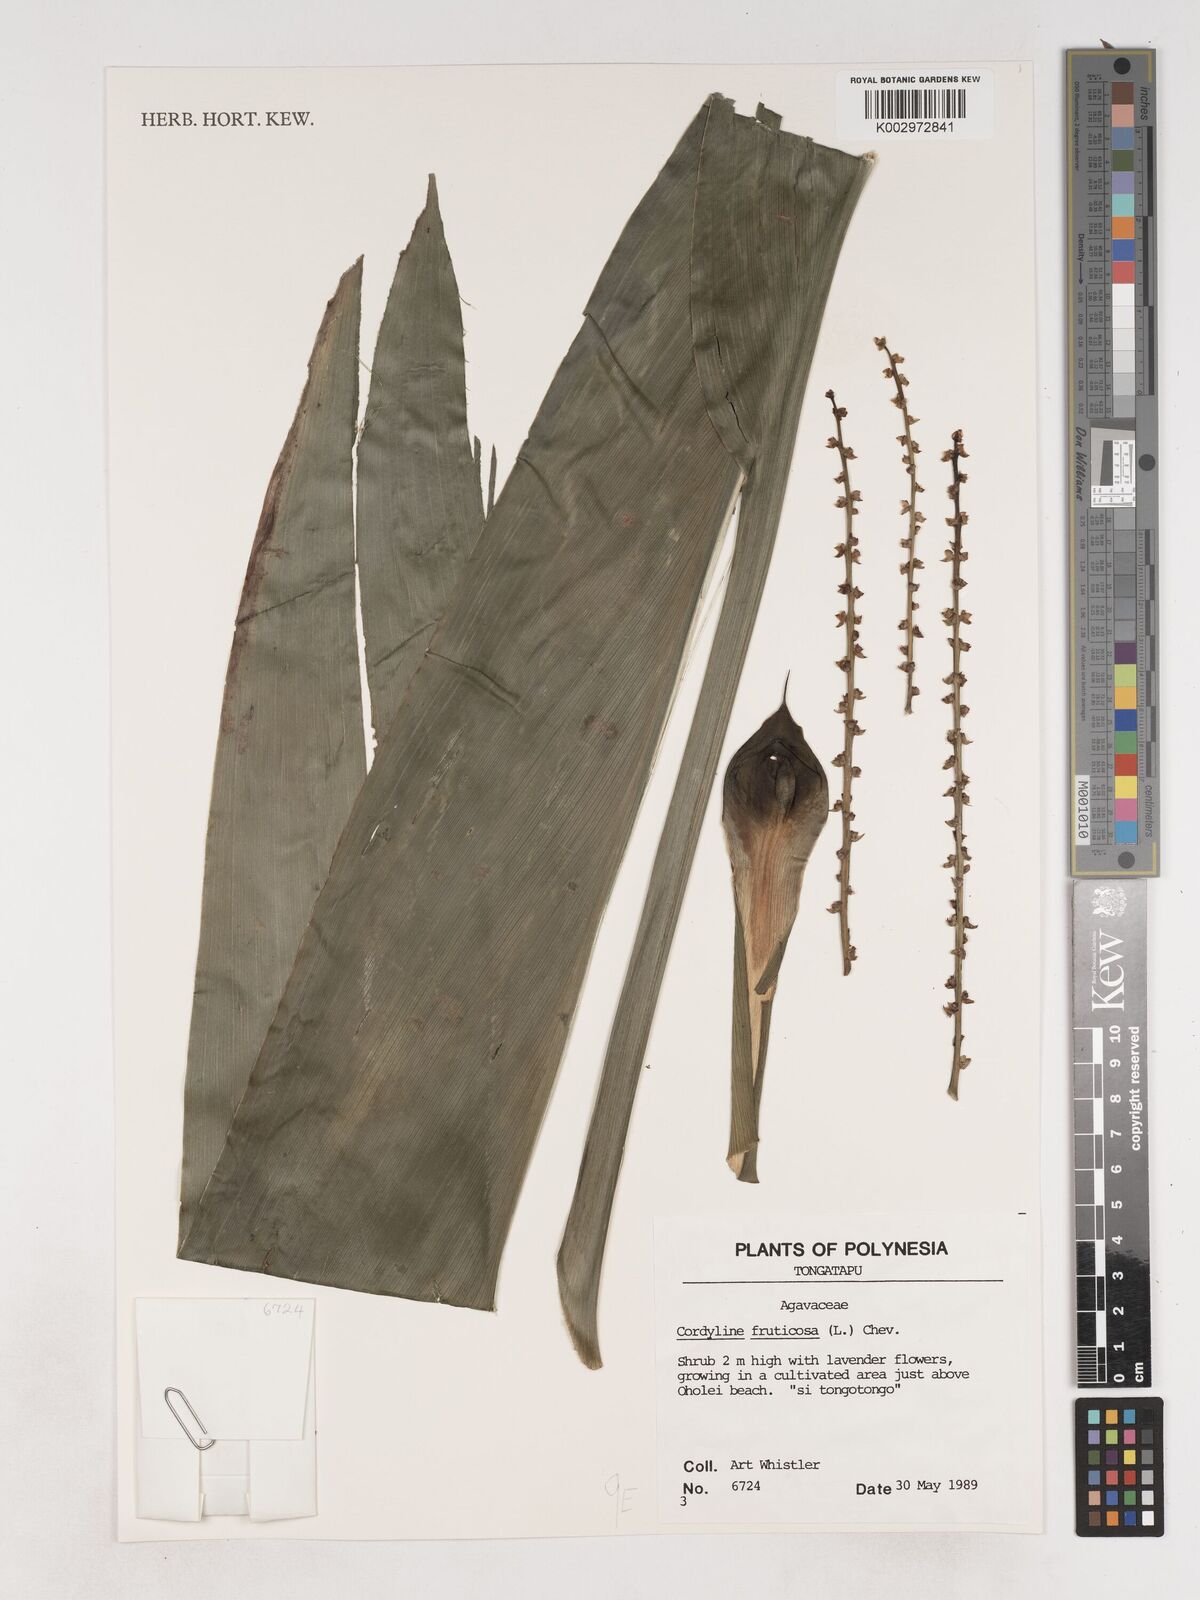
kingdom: Plantae
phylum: Tracheophyta
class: Liliopsida
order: Asparagales
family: Asparagaceae
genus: Dracaena
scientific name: Dracaena angustifolia
